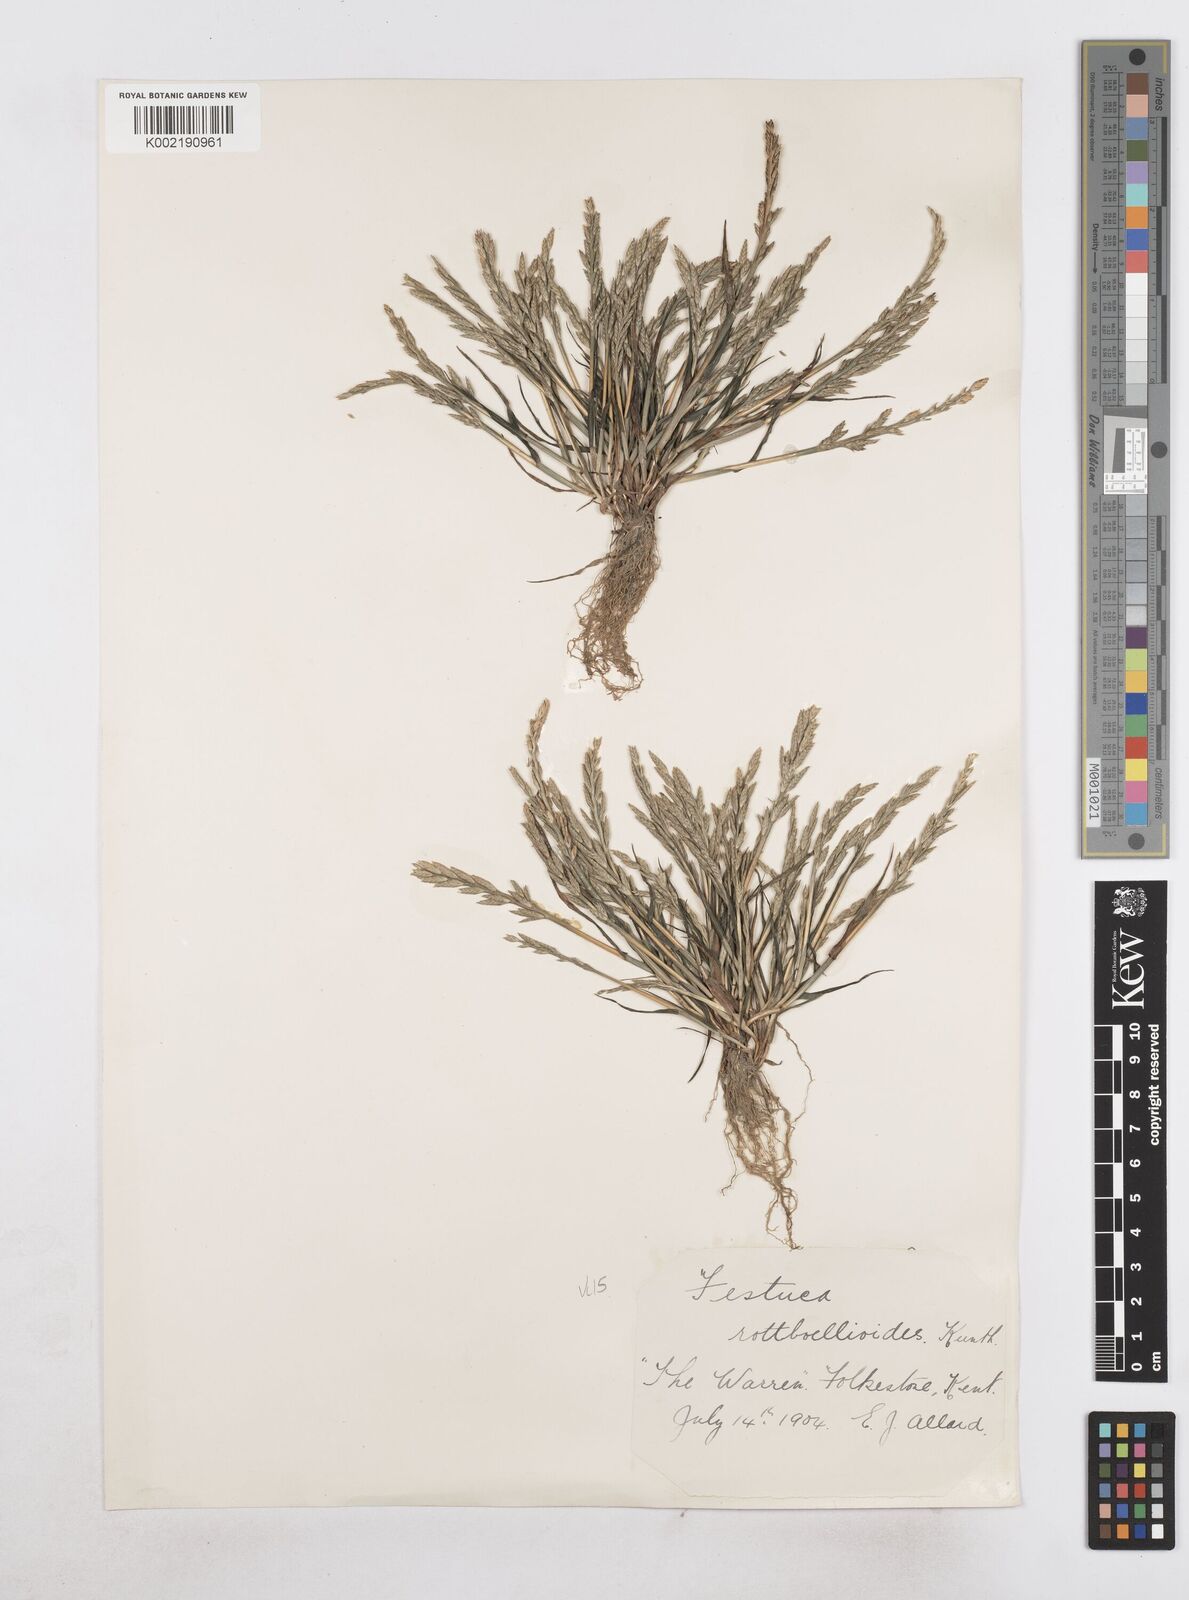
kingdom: Plantae
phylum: Tracheophyta
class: Liliopsida
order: Poales
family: Poaceae
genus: Catapodium
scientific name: Catapodium marinum
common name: Sea fern-grass
